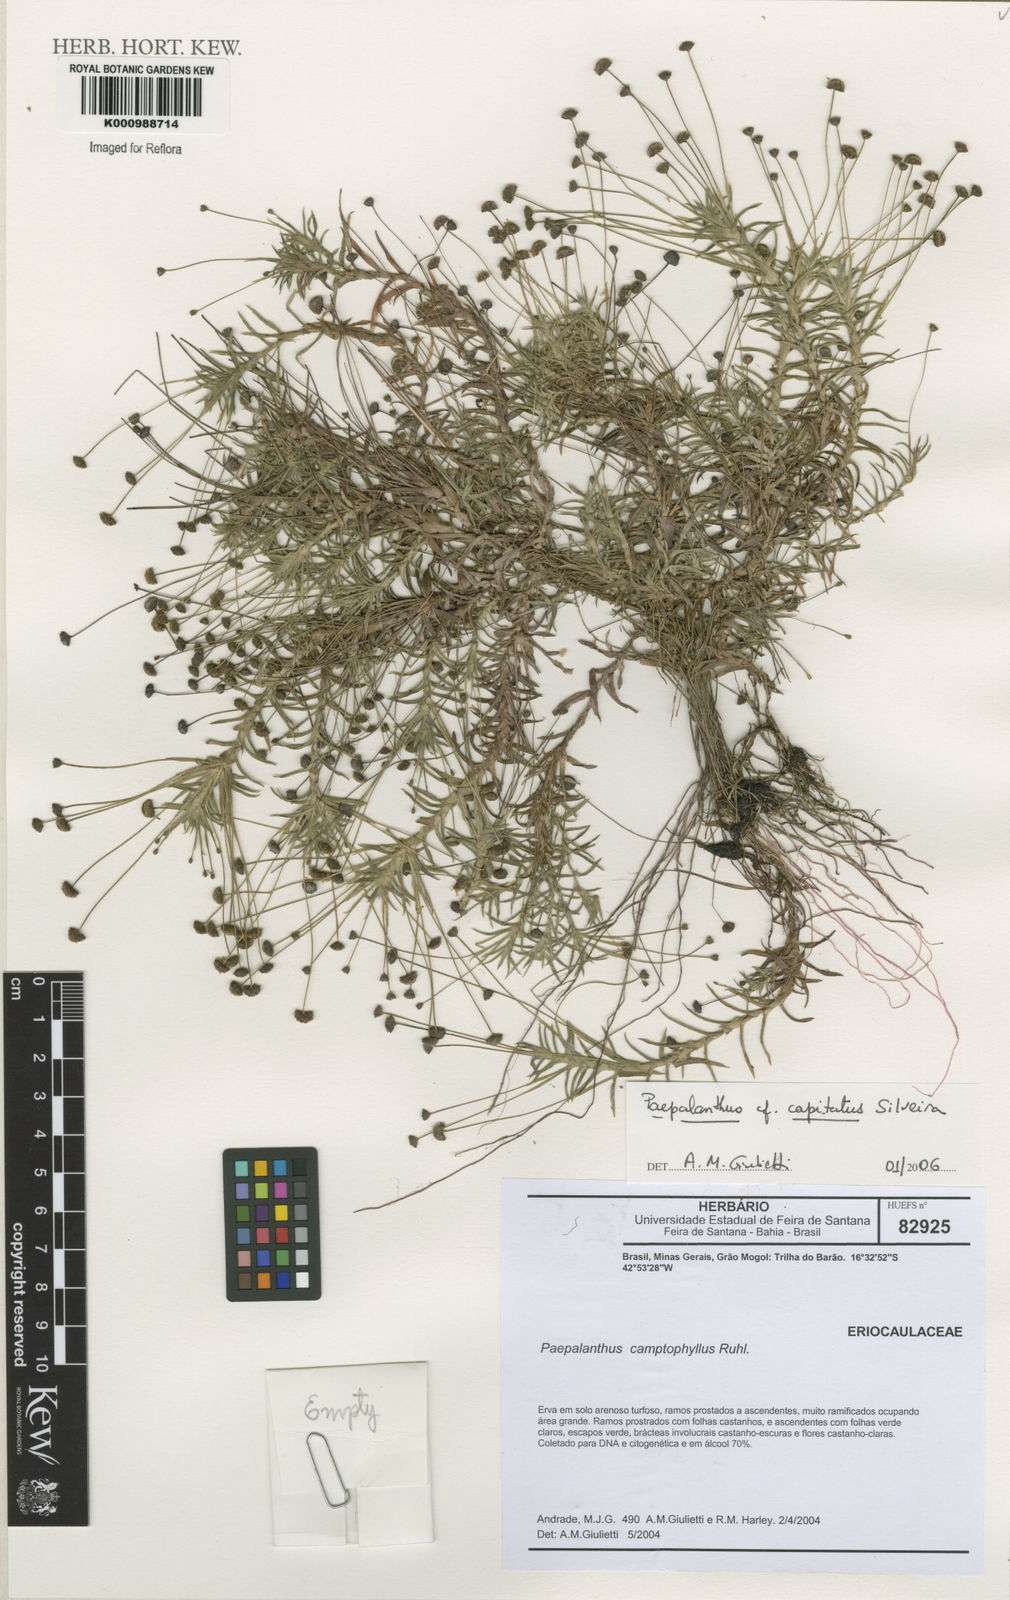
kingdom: Plantae
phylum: Tracheophyta
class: Liliopsida
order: Poales
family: Eriocaulaceae
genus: Paepalanthus
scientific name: Paepalanthus capitatus
